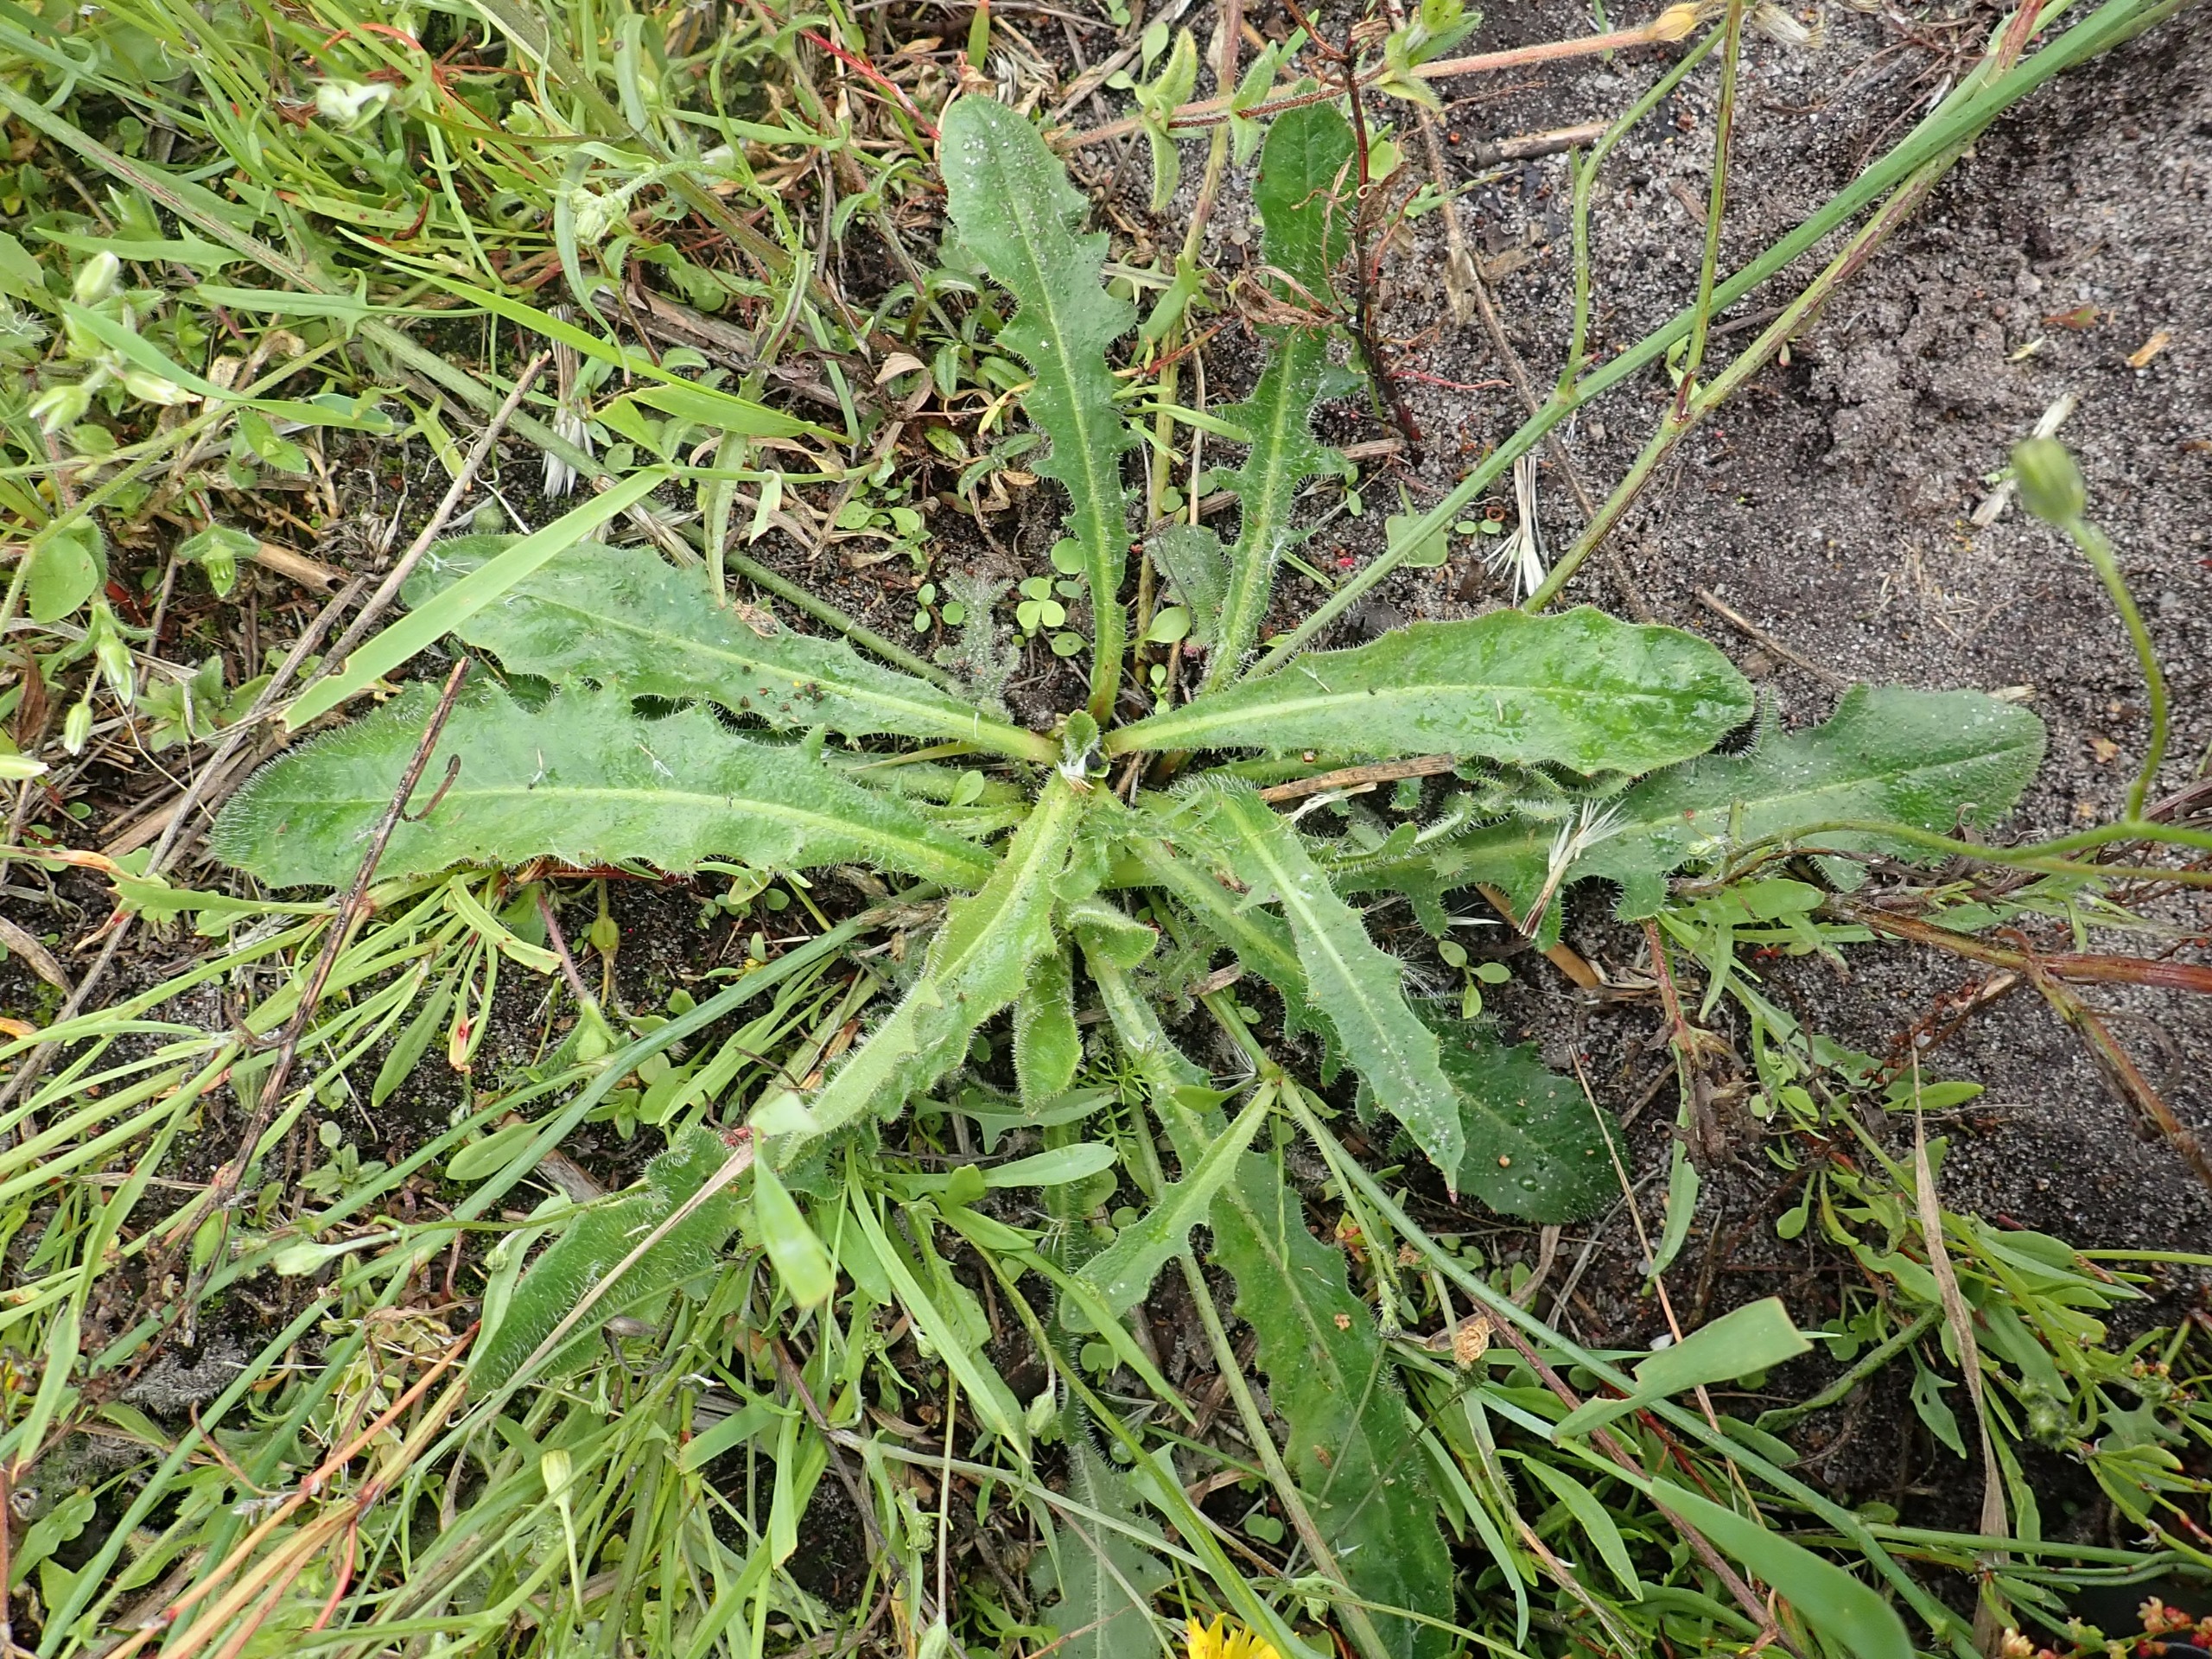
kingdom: Plantae
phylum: Tracheophyta
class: Magnoliopsida
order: Asterales
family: Asteraceae
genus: Hypochaeris
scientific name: Hypochaeris radicata
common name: Almindelig kongepen
